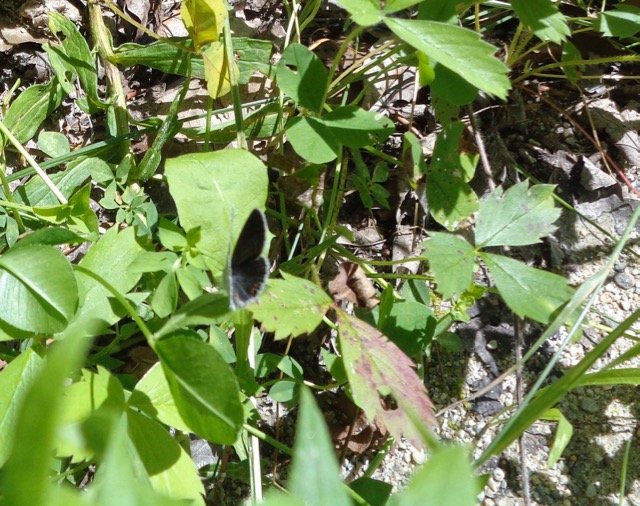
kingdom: Animalia
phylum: Arthropoda
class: Insecta
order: Lepidoptera
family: Lycaenidae
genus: Elkalyce
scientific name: Elkalyce comyntas
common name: Eastern Tailed-Blue
